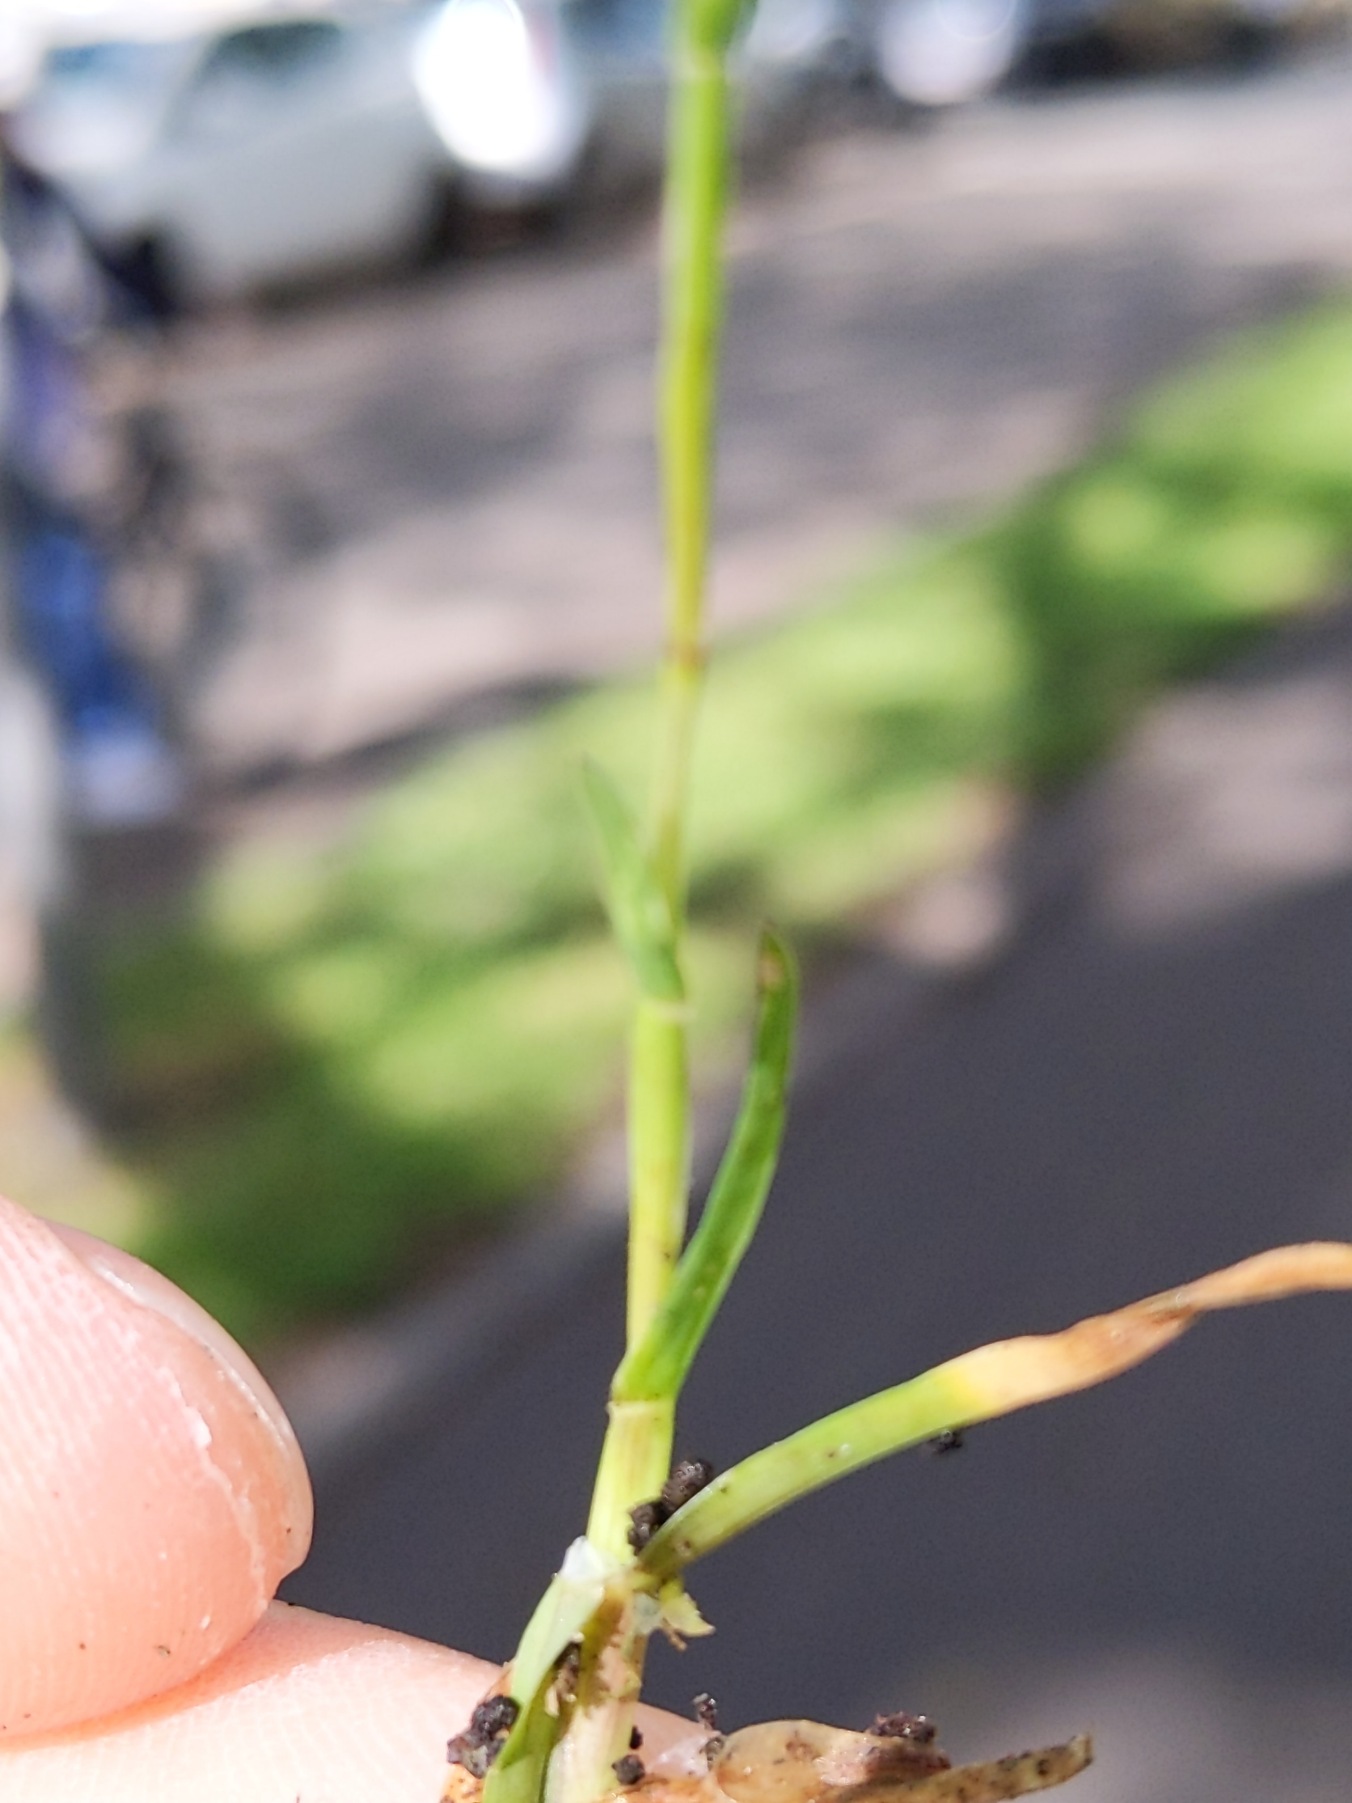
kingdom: Plantae
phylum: Tracheophyta
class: Liliopsida
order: Poales
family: Poaceae
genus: Poa
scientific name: Poa annua
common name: Enårig rapgræs
